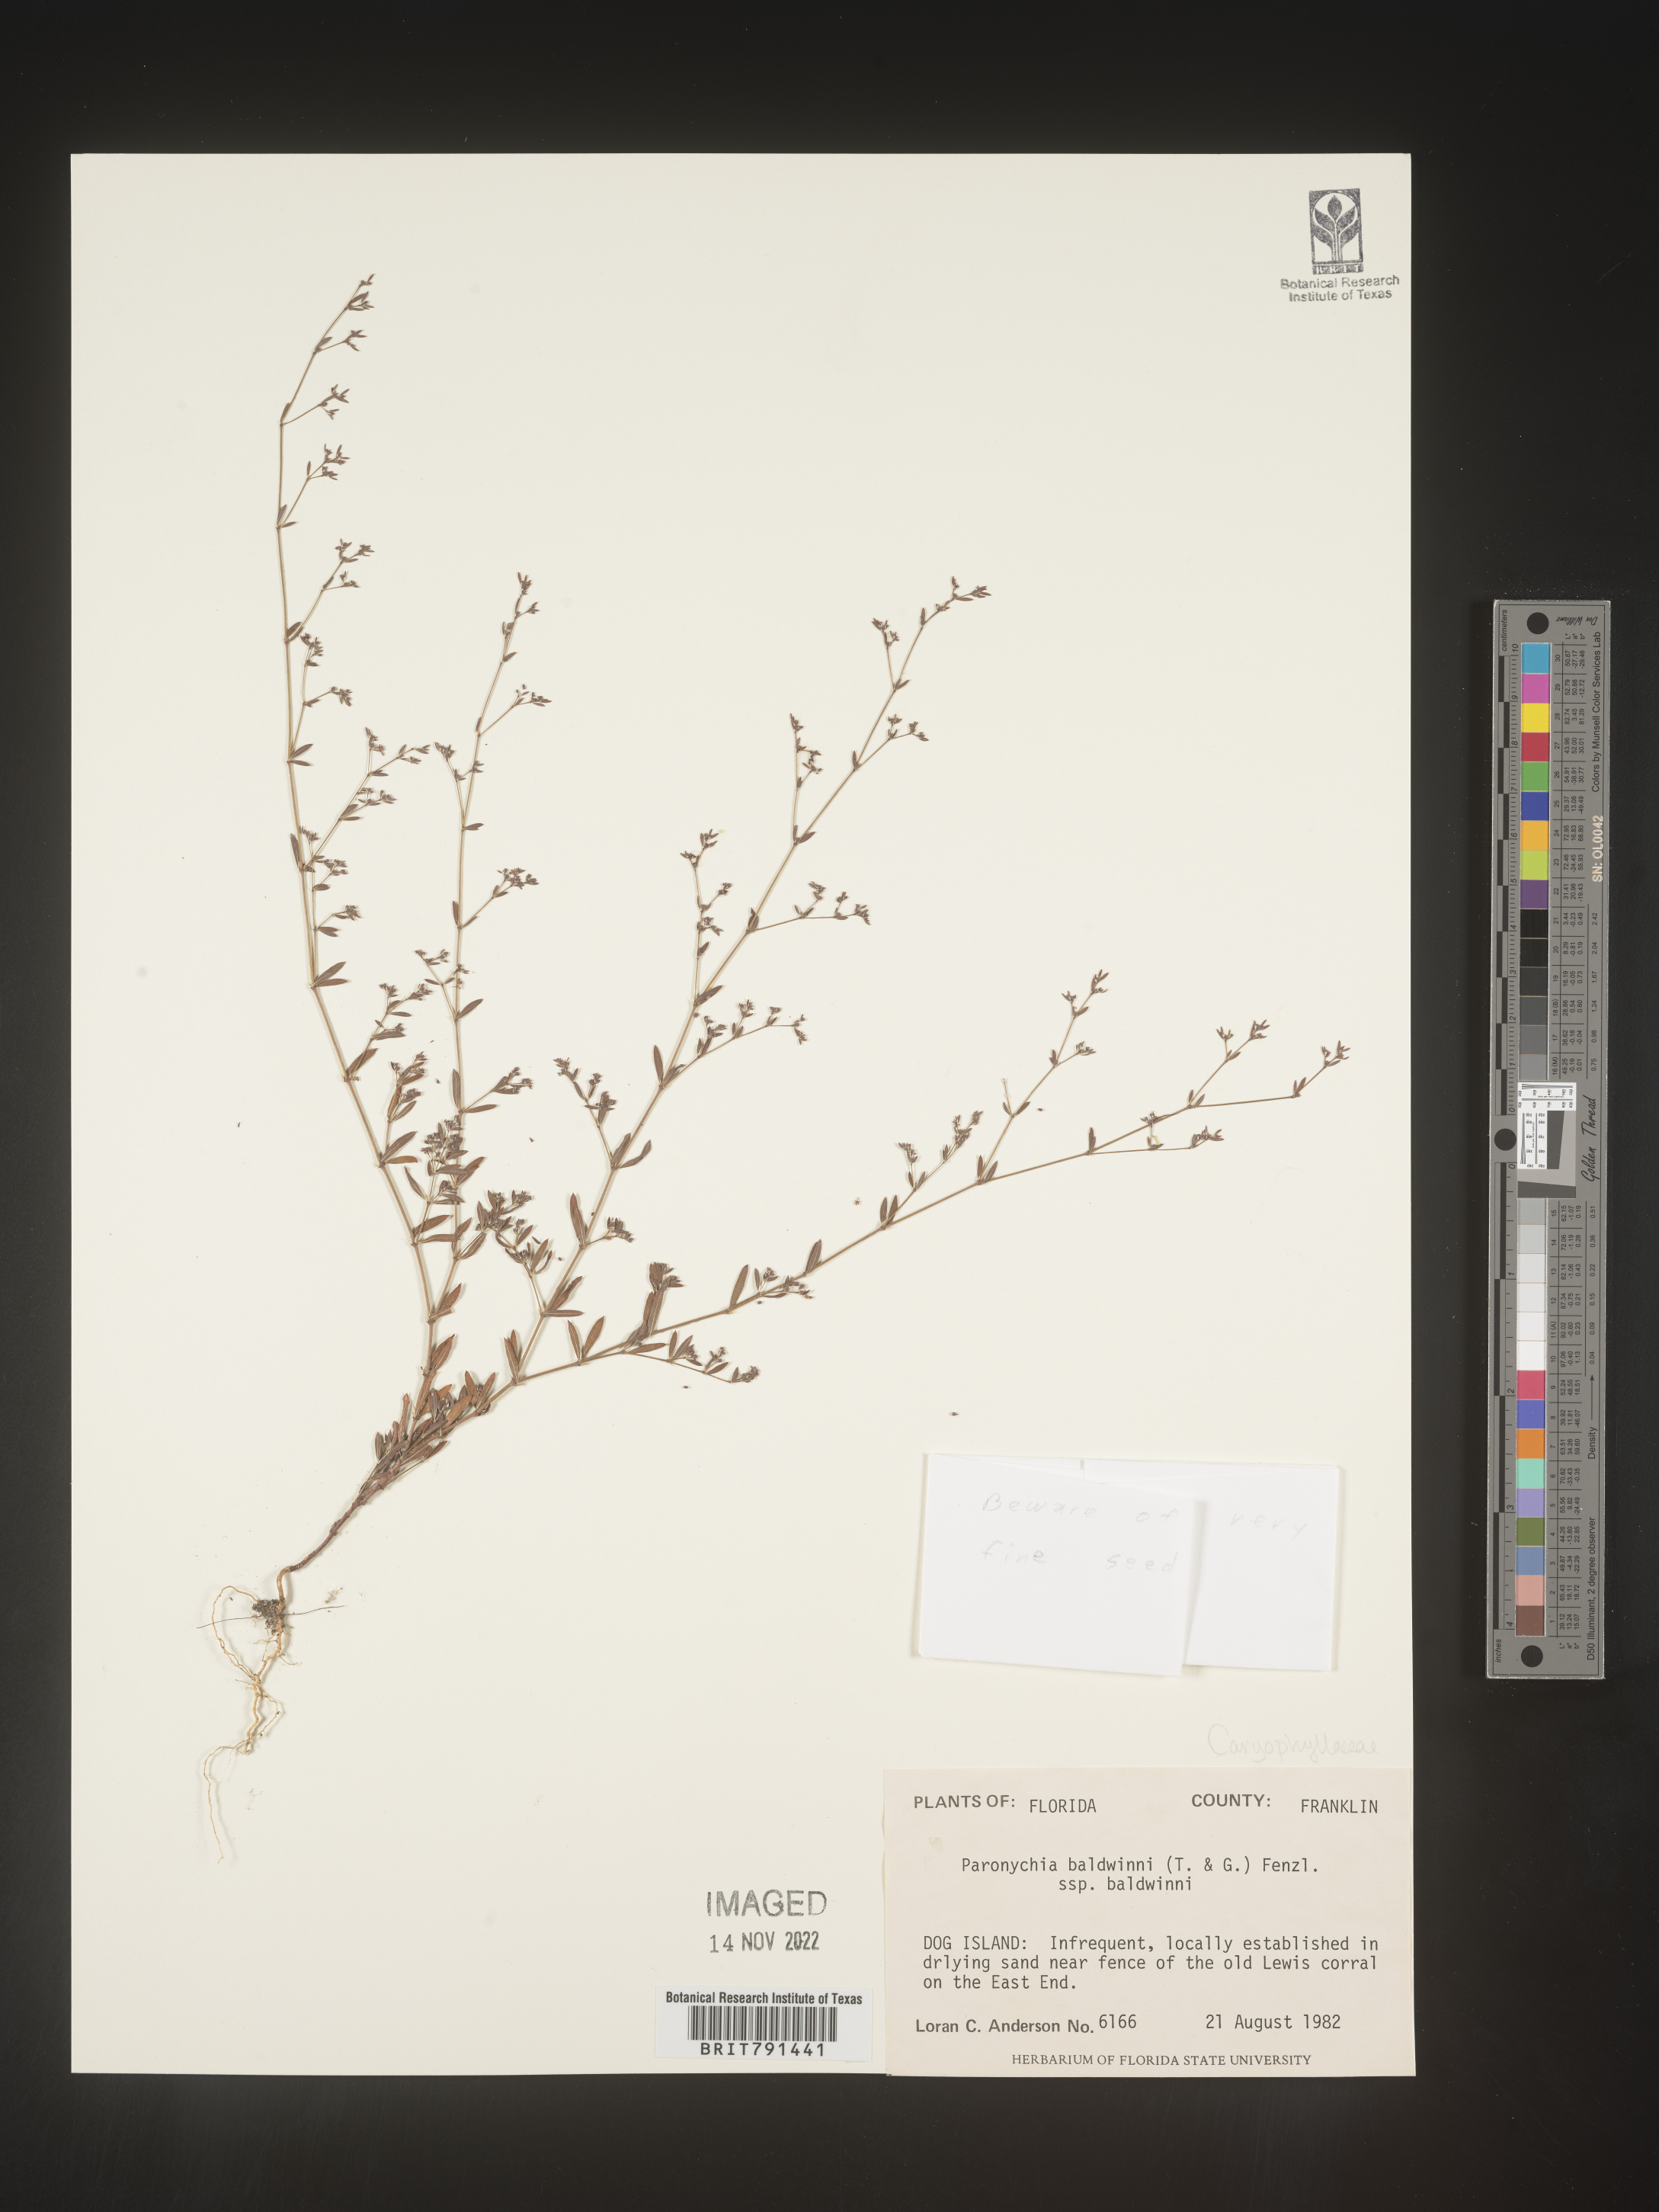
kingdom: Plantae
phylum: Tracheophyta
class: Magnoliopsida
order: Caryophyllales
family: Caryophyllaceae
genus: Paronychia
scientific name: Paronychia baldwinii
